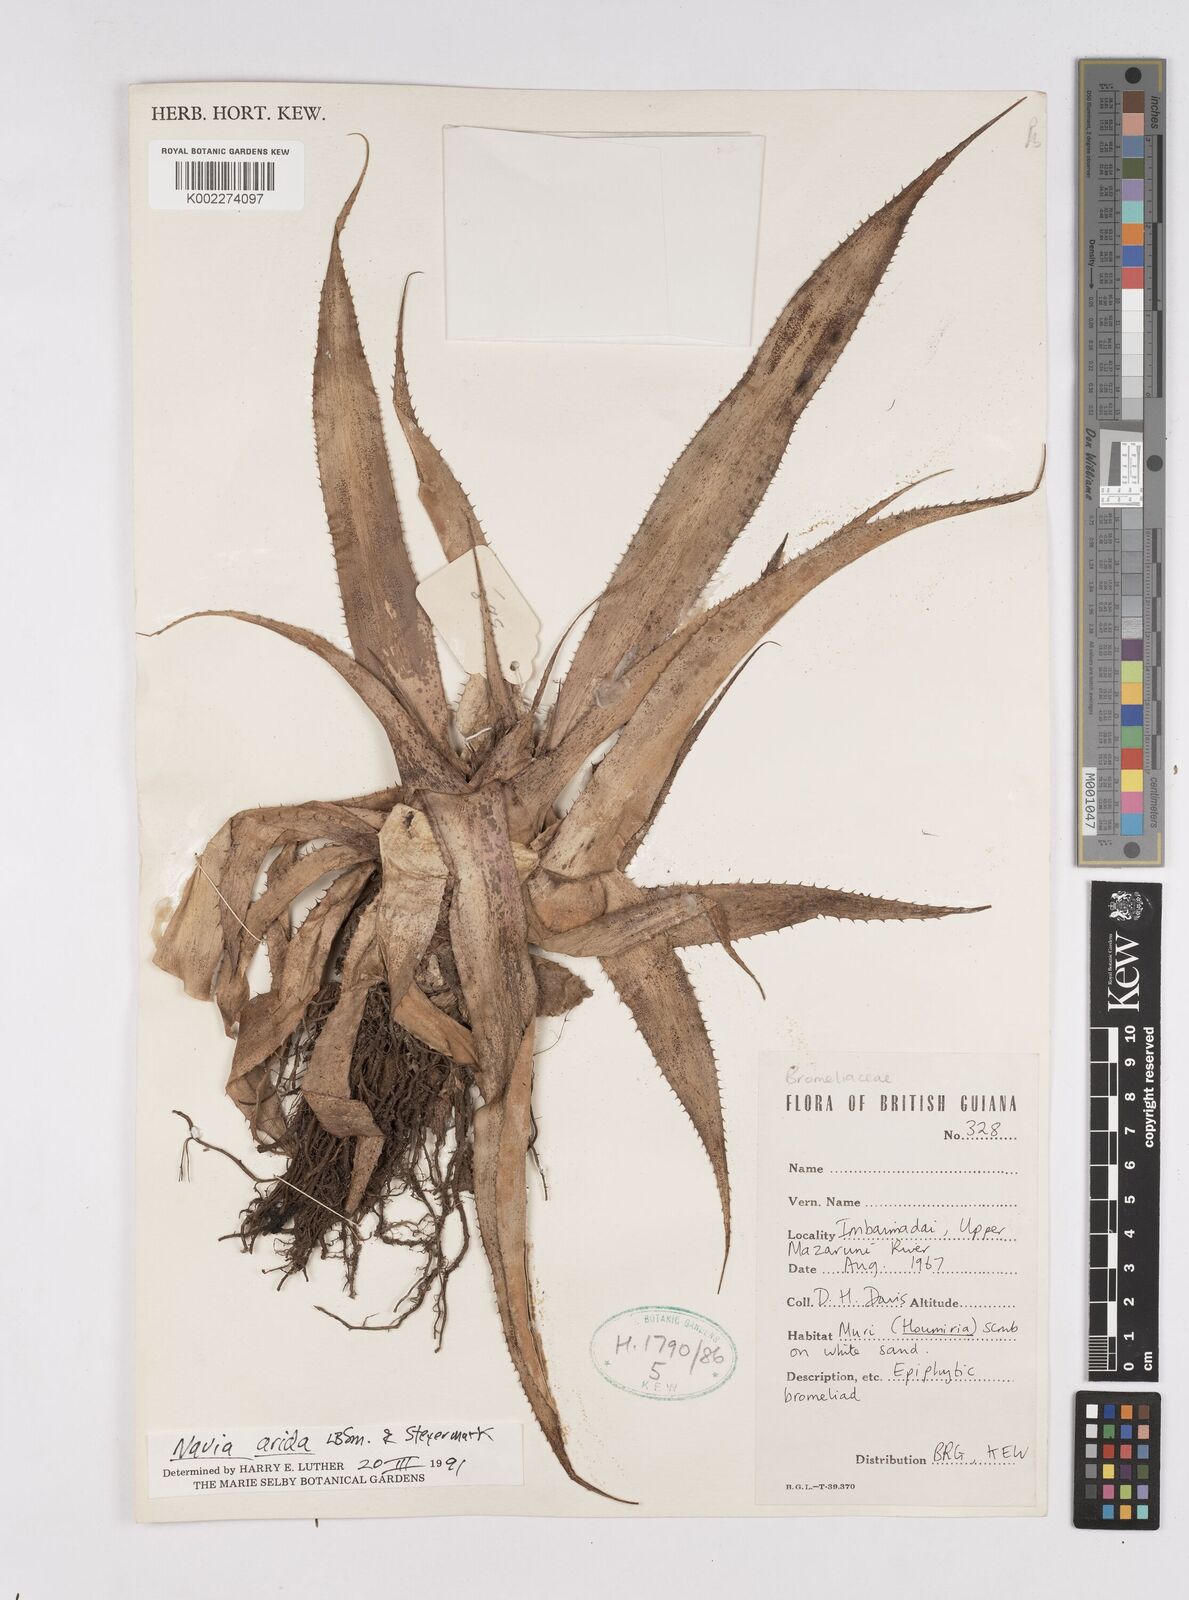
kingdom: Plantae
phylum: Tracheophyta
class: Liliopsida
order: Poales
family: Bromeliaceae
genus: Navia
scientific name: Navia arida
